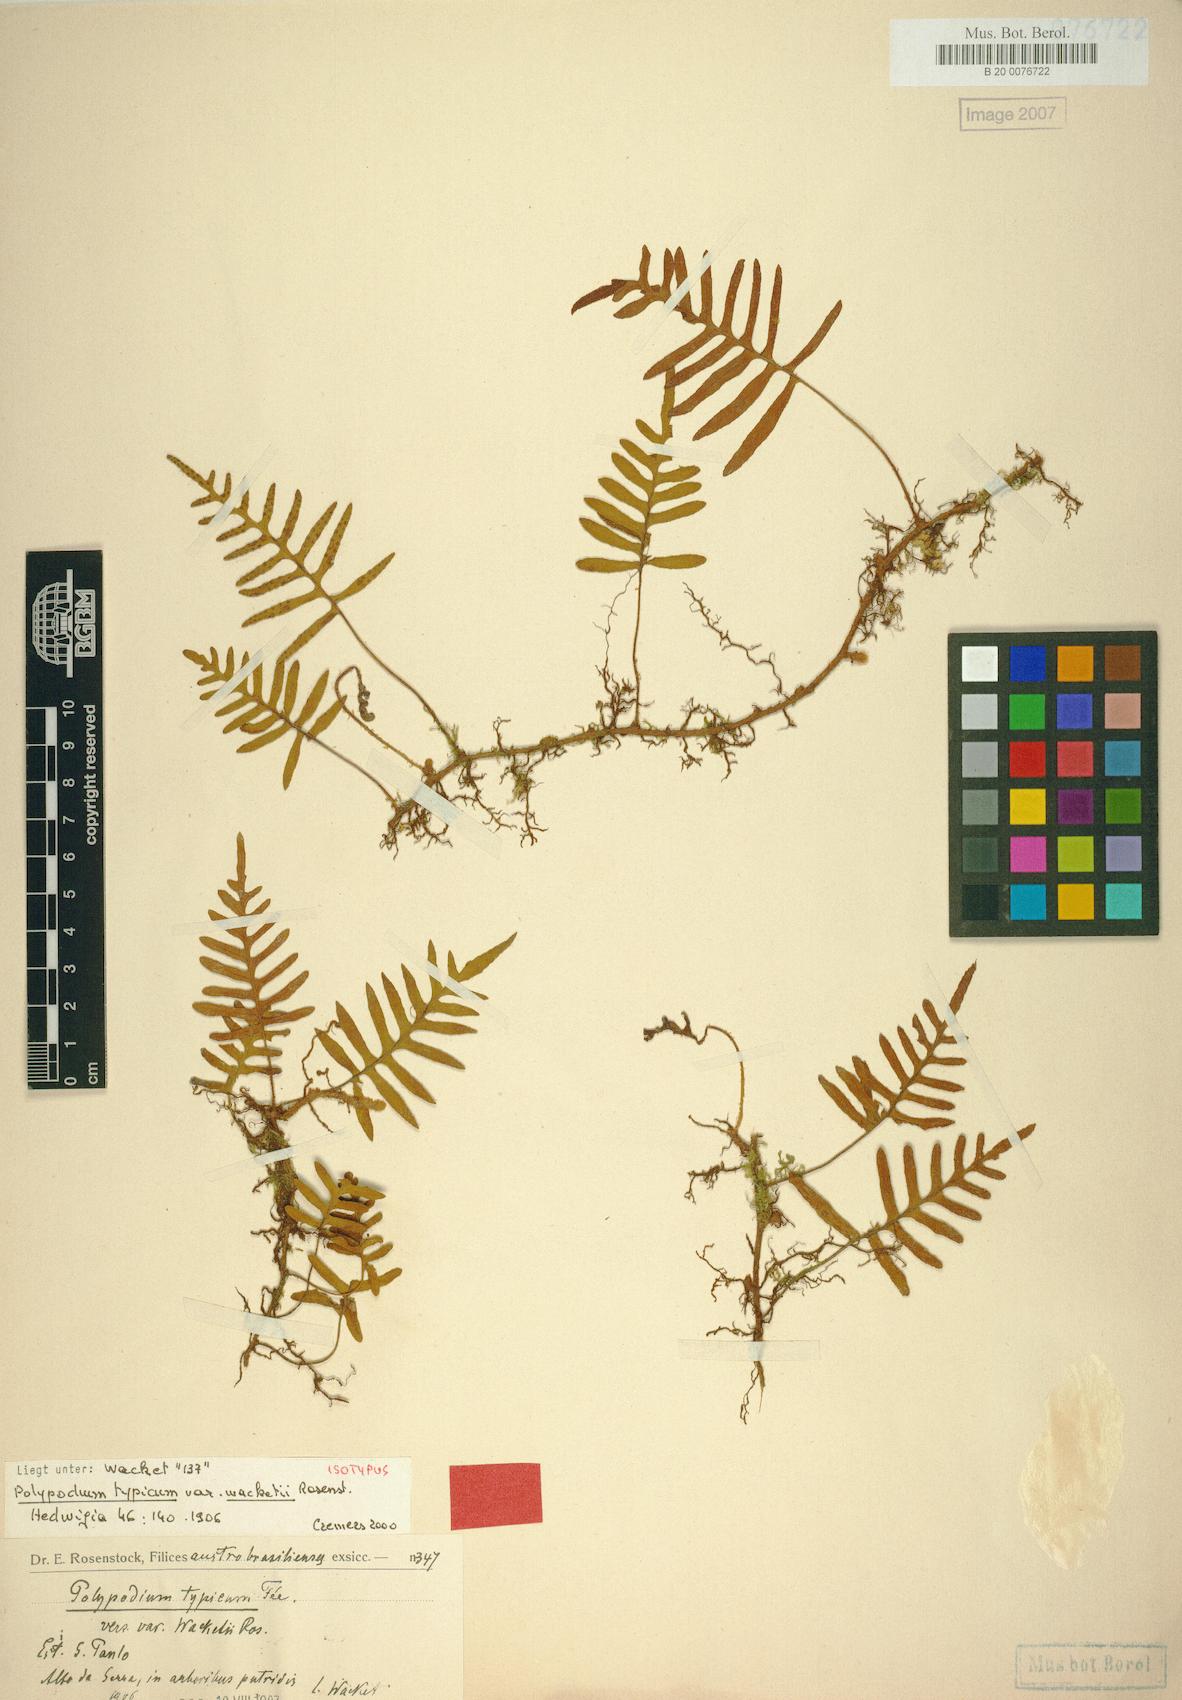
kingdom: Plantae
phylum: Tracheophyta
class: Polypodiopsida
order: Polypodiales
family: Polypodiaceae
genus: Pleopeltis
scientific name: Pleopeltis pleopeltidis
